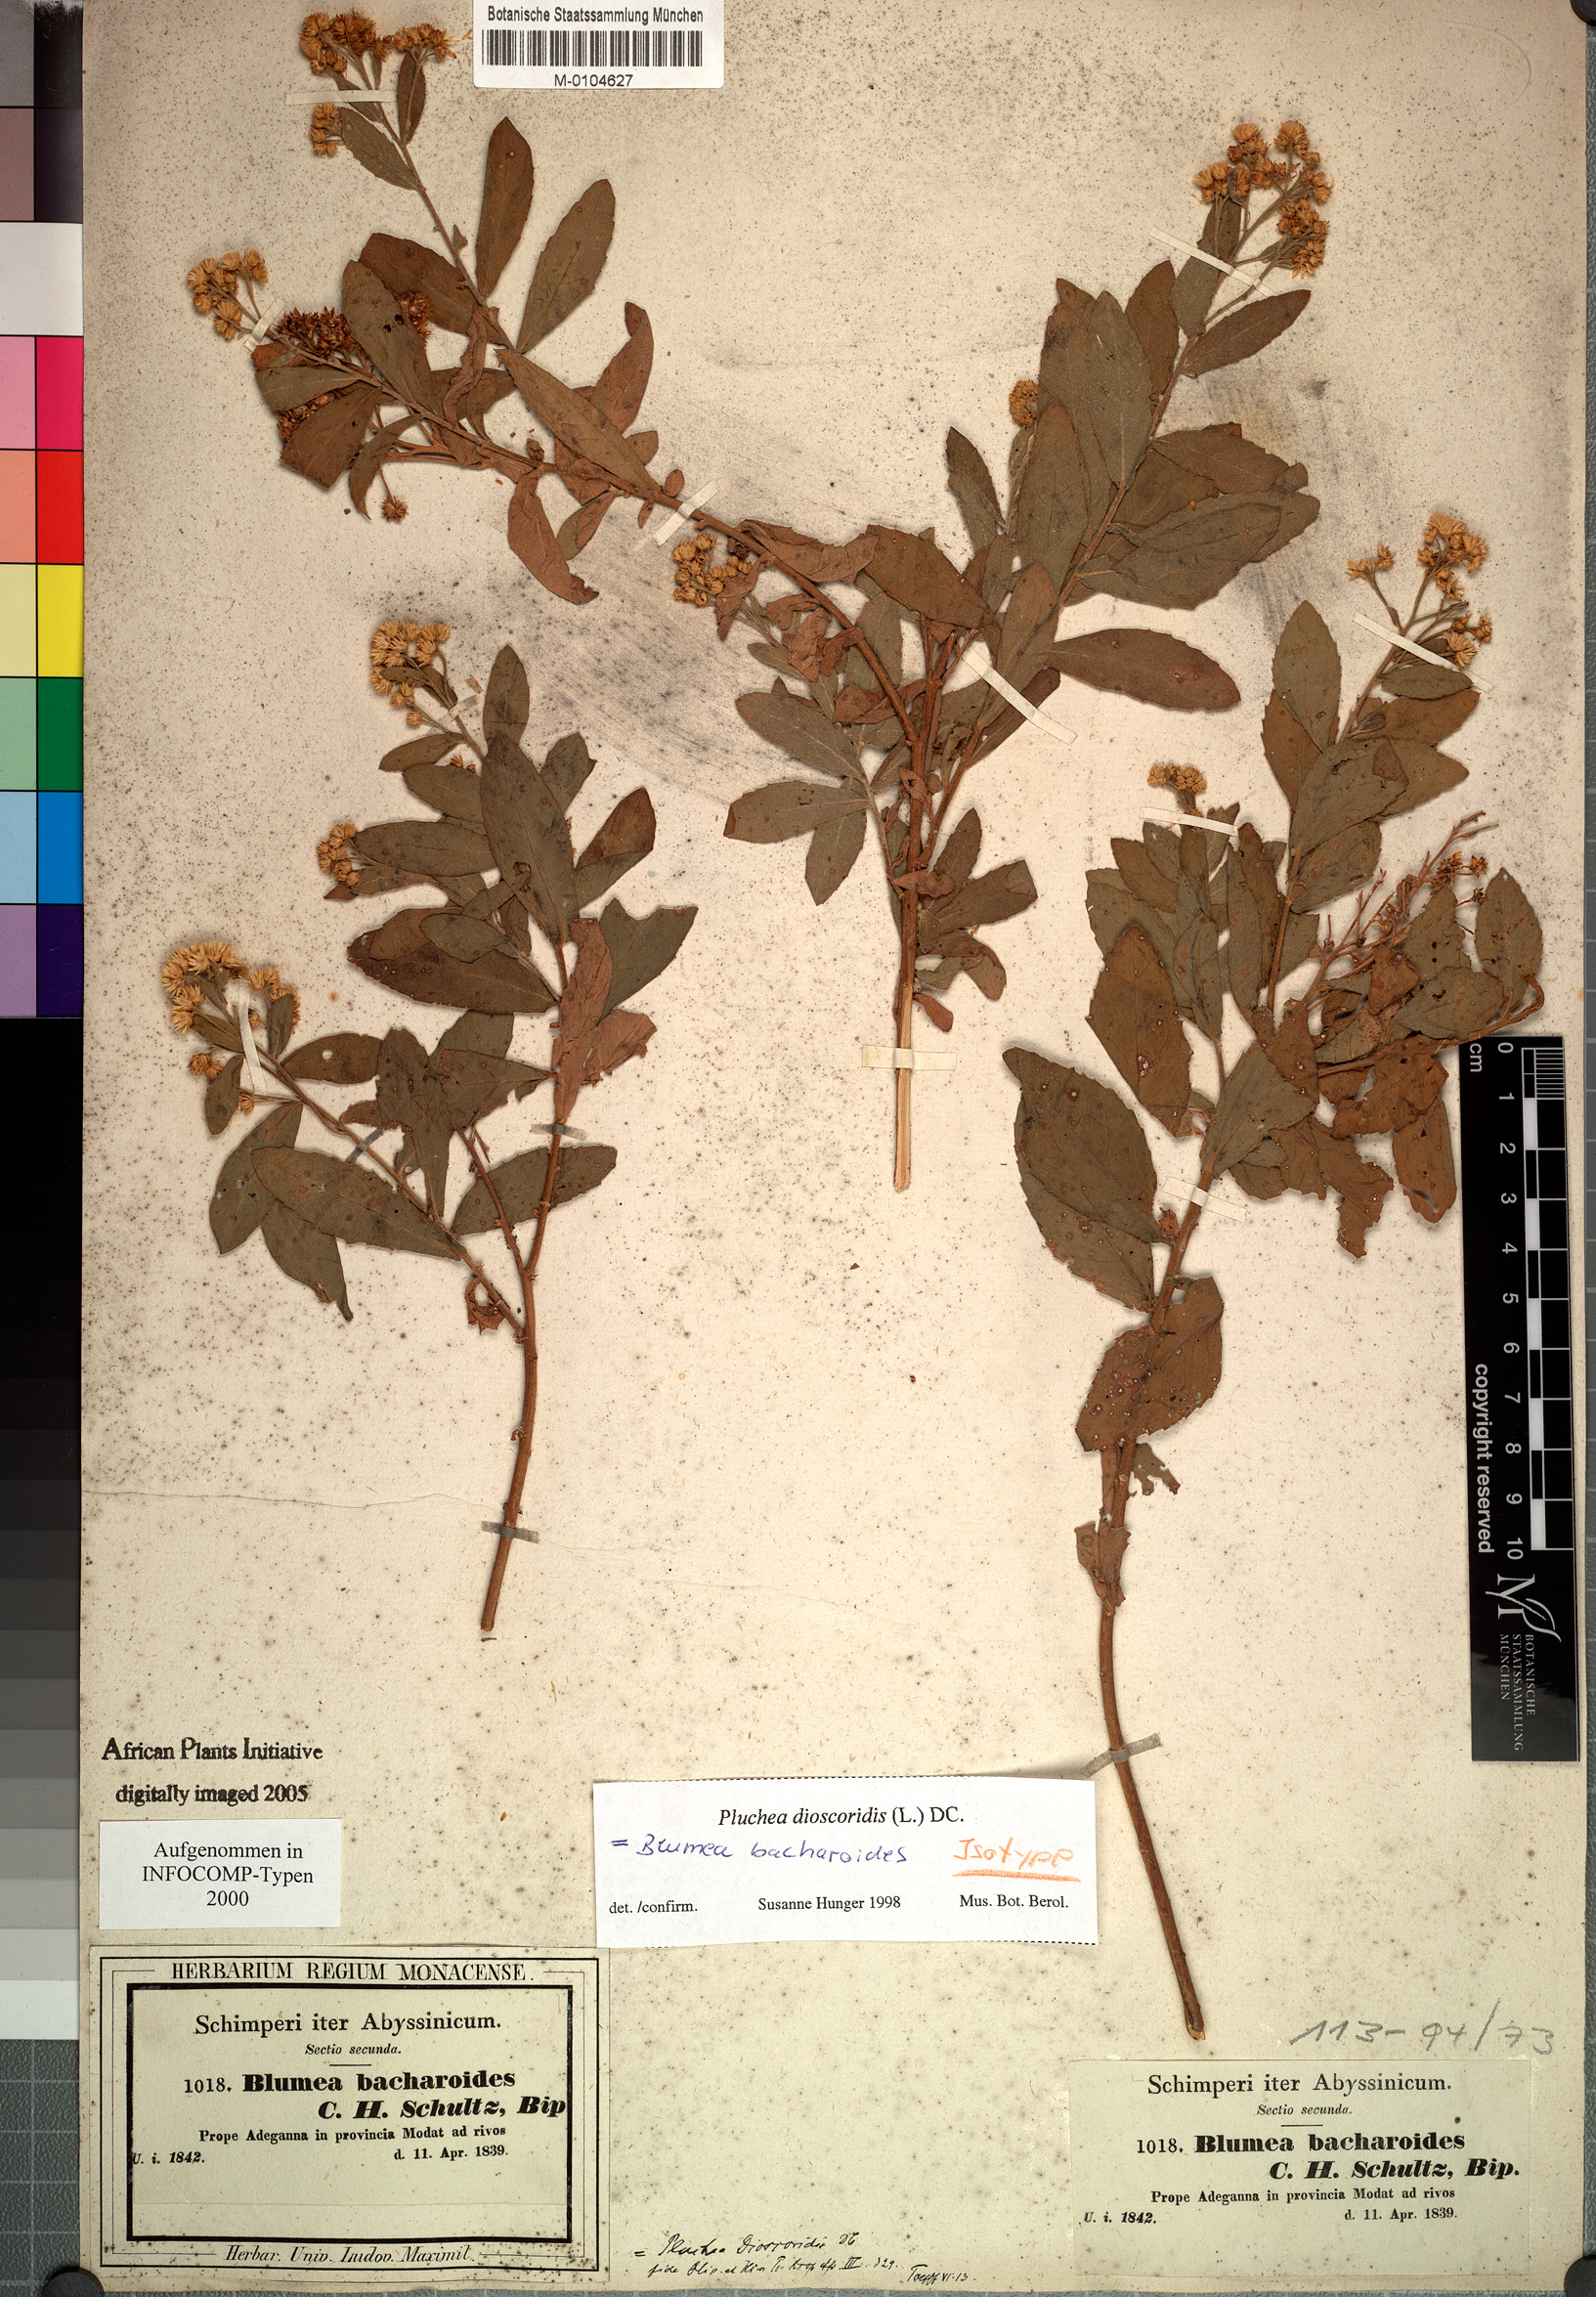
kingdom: Plantae
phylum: Tracheophyta
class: Magnoliopsida
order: Asterales
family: Asteraceae
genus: Pluchea
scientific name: Pluchea dioscoridis
